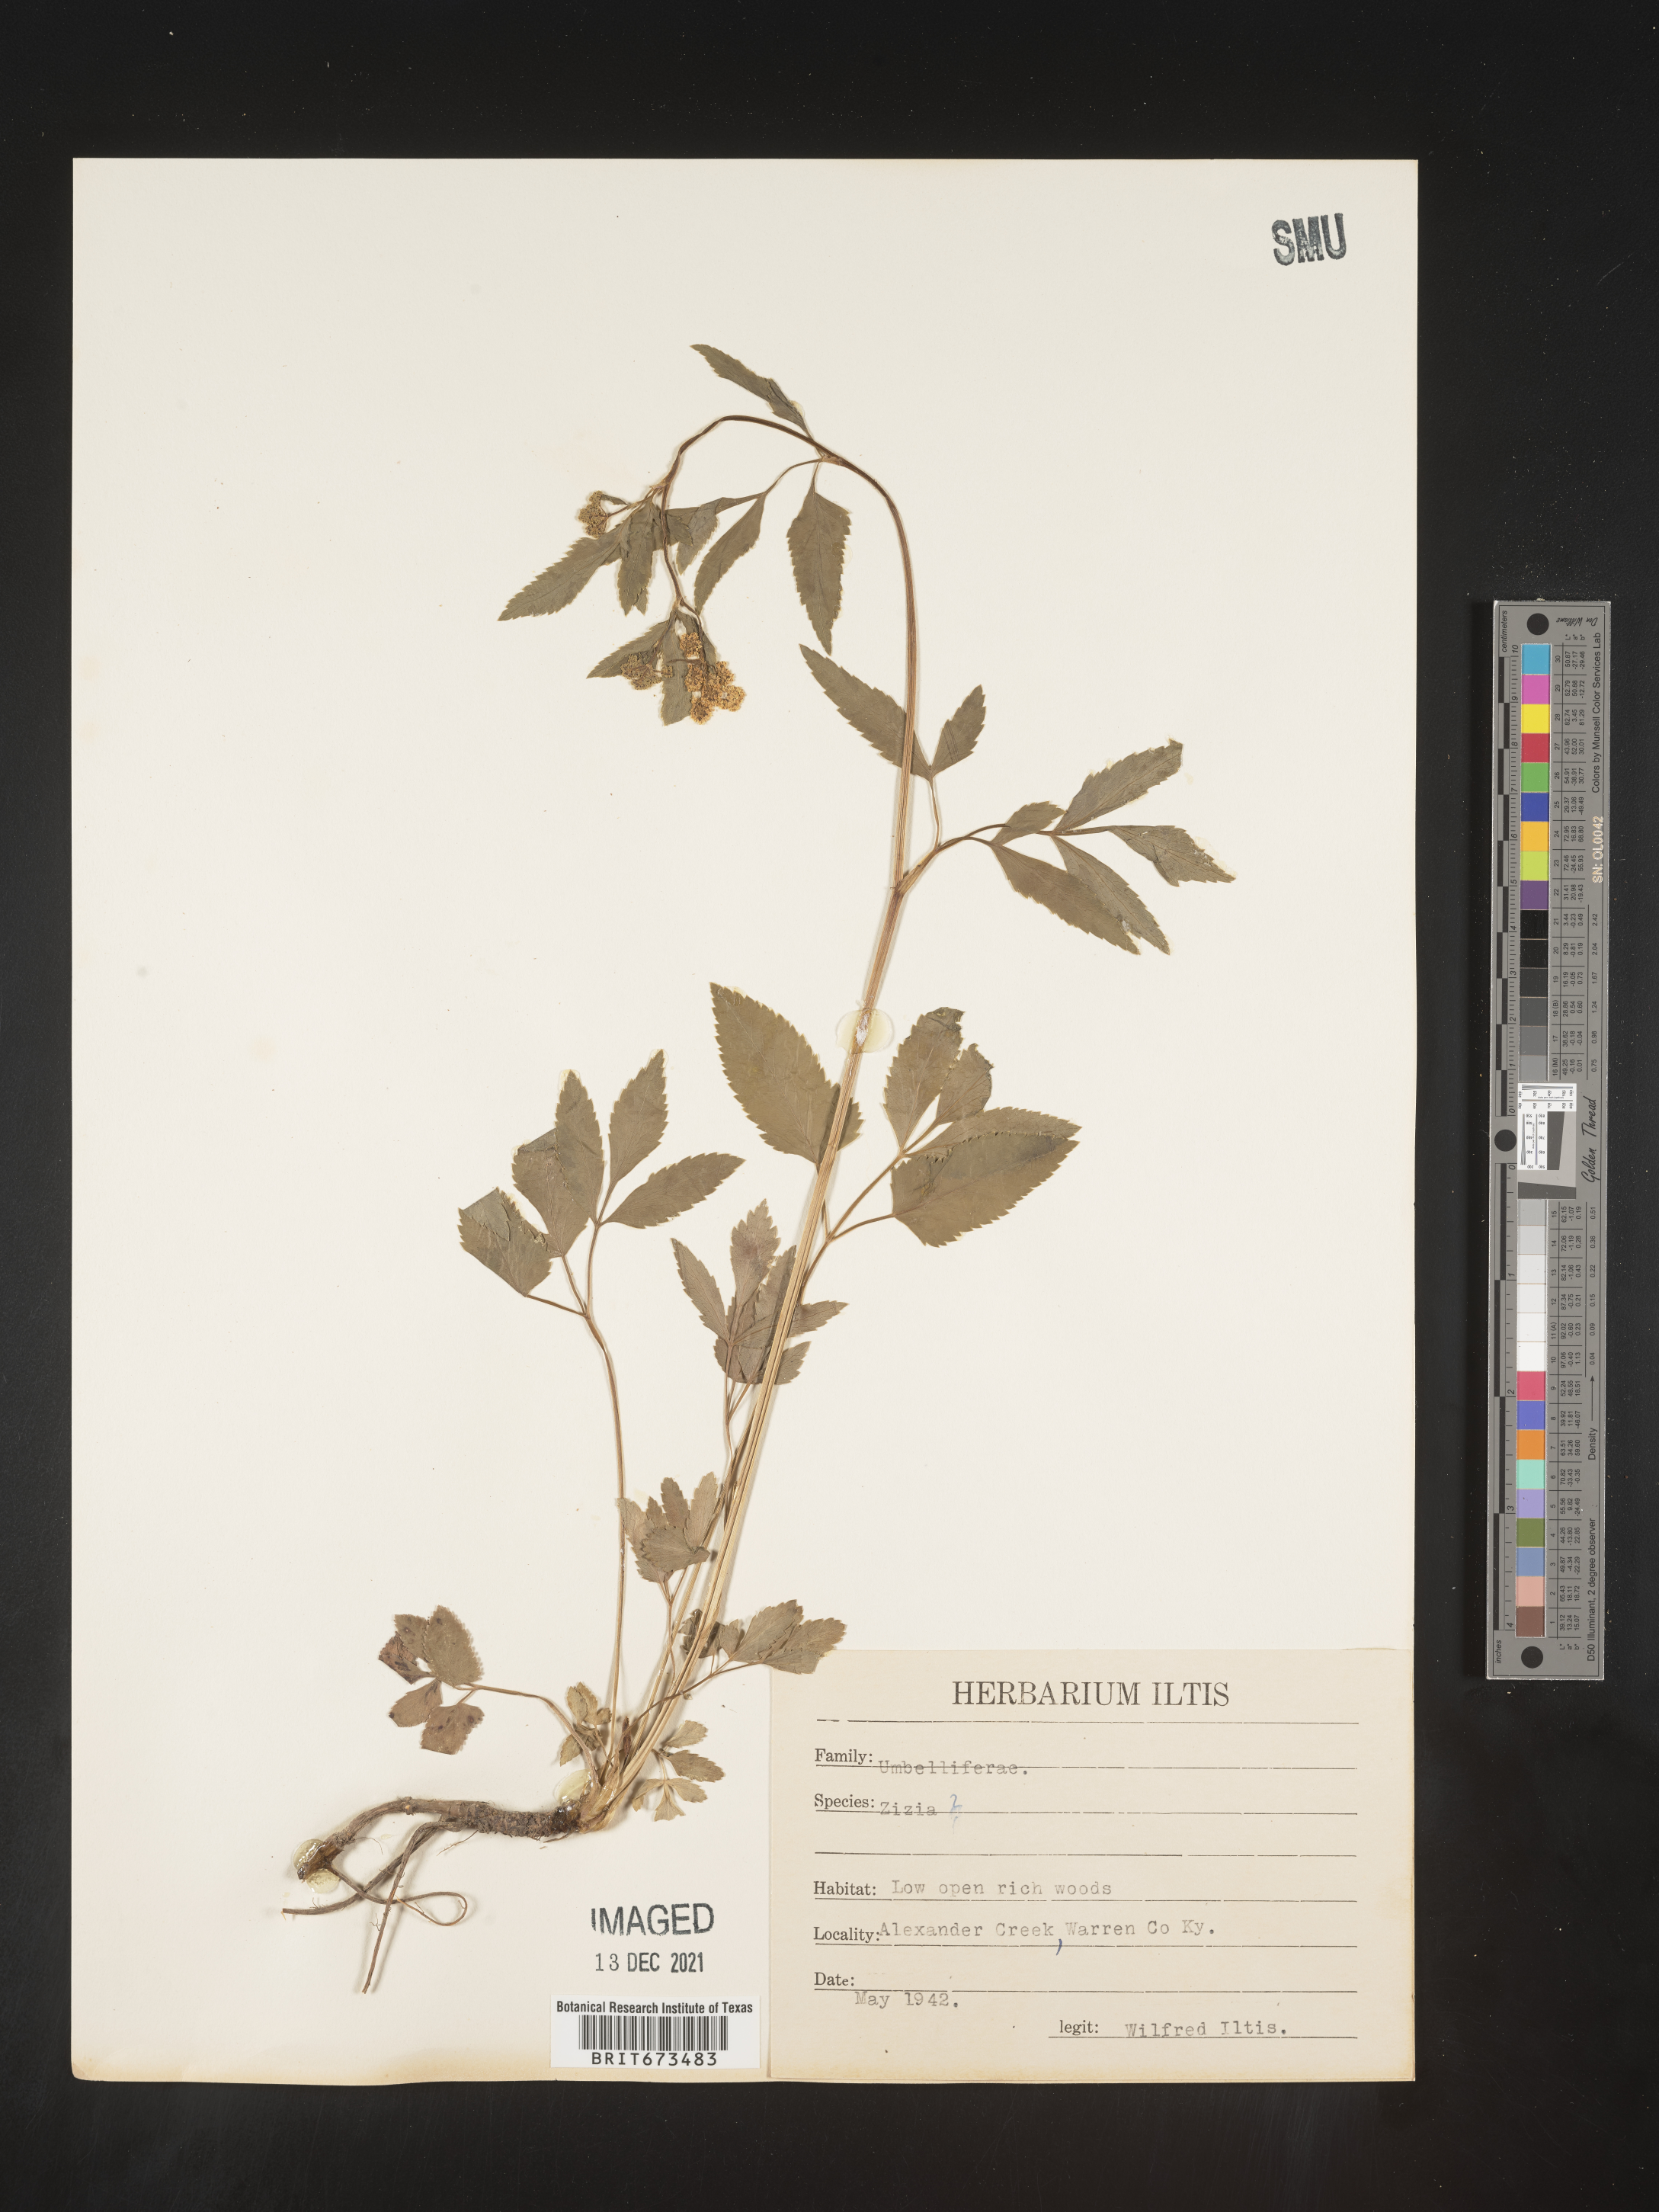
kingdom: Plantae
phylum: Tracheophyta
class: Magnoliopsida
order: Apiales
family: Apiaceae
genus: Zizia
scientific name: Zizia trifoliata
